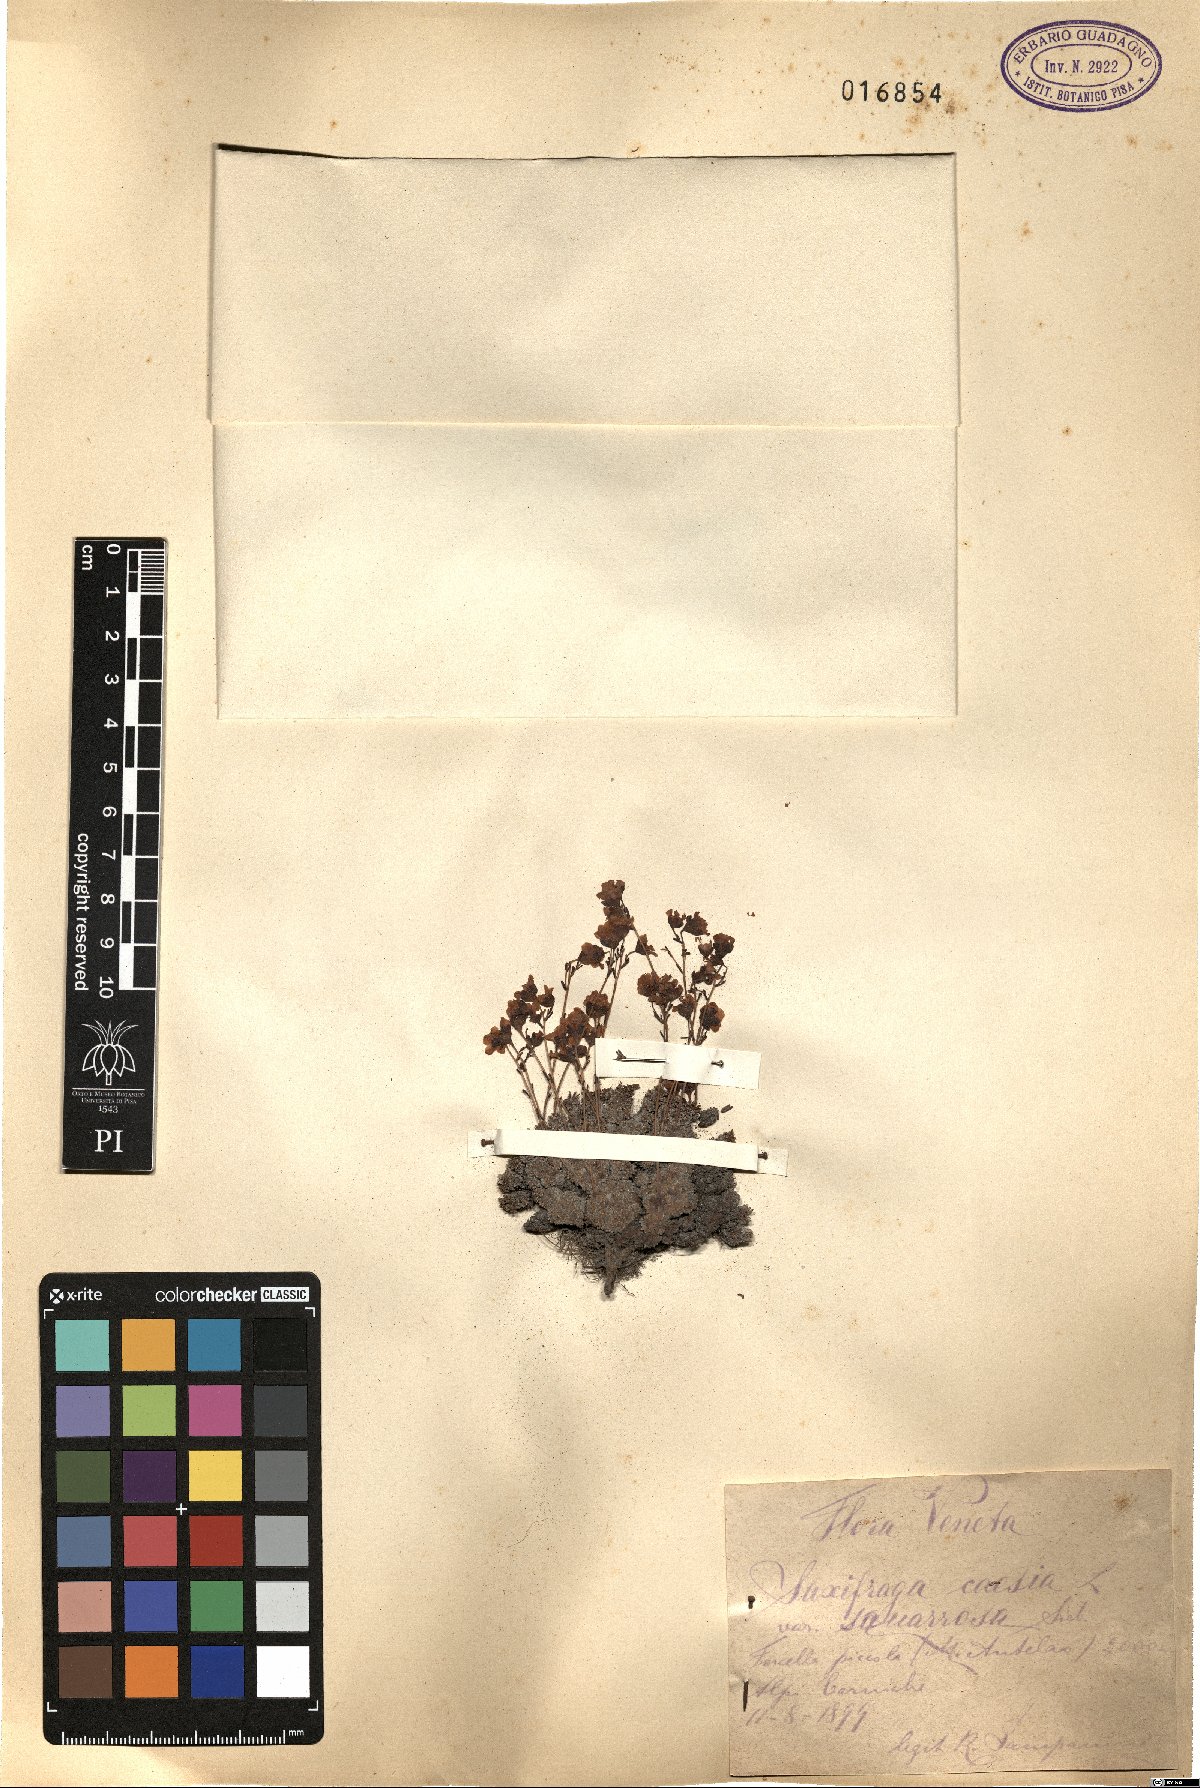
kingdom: Plantae
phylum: Tracheophyta
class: Magnoliopsida
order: Saxifragales
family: Saxifragaceae
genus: Saxifraga
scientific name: Saxifraga caesia
